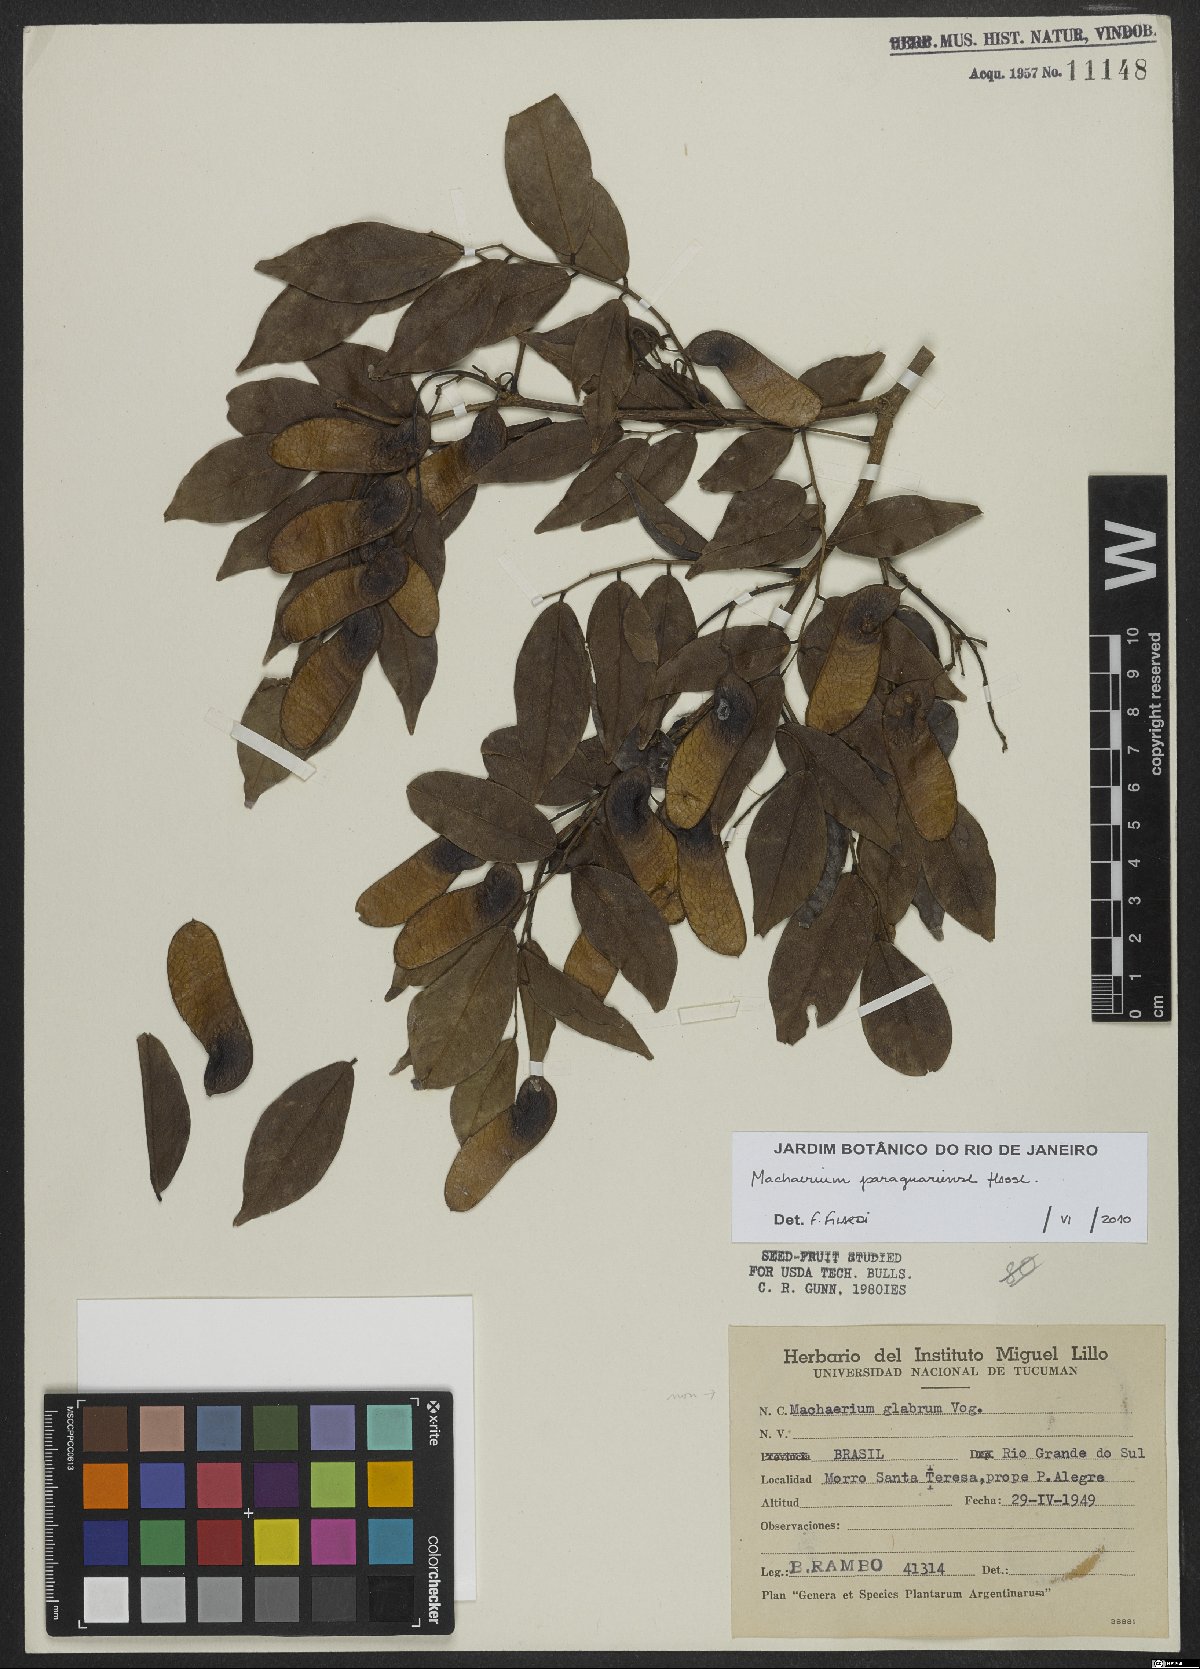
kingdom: Plantae
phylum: Tracheophyta
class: Magnoliopsida
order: Fabales
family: Fabaceae
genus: Machaerium
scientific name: Machaerium oblongifolium
